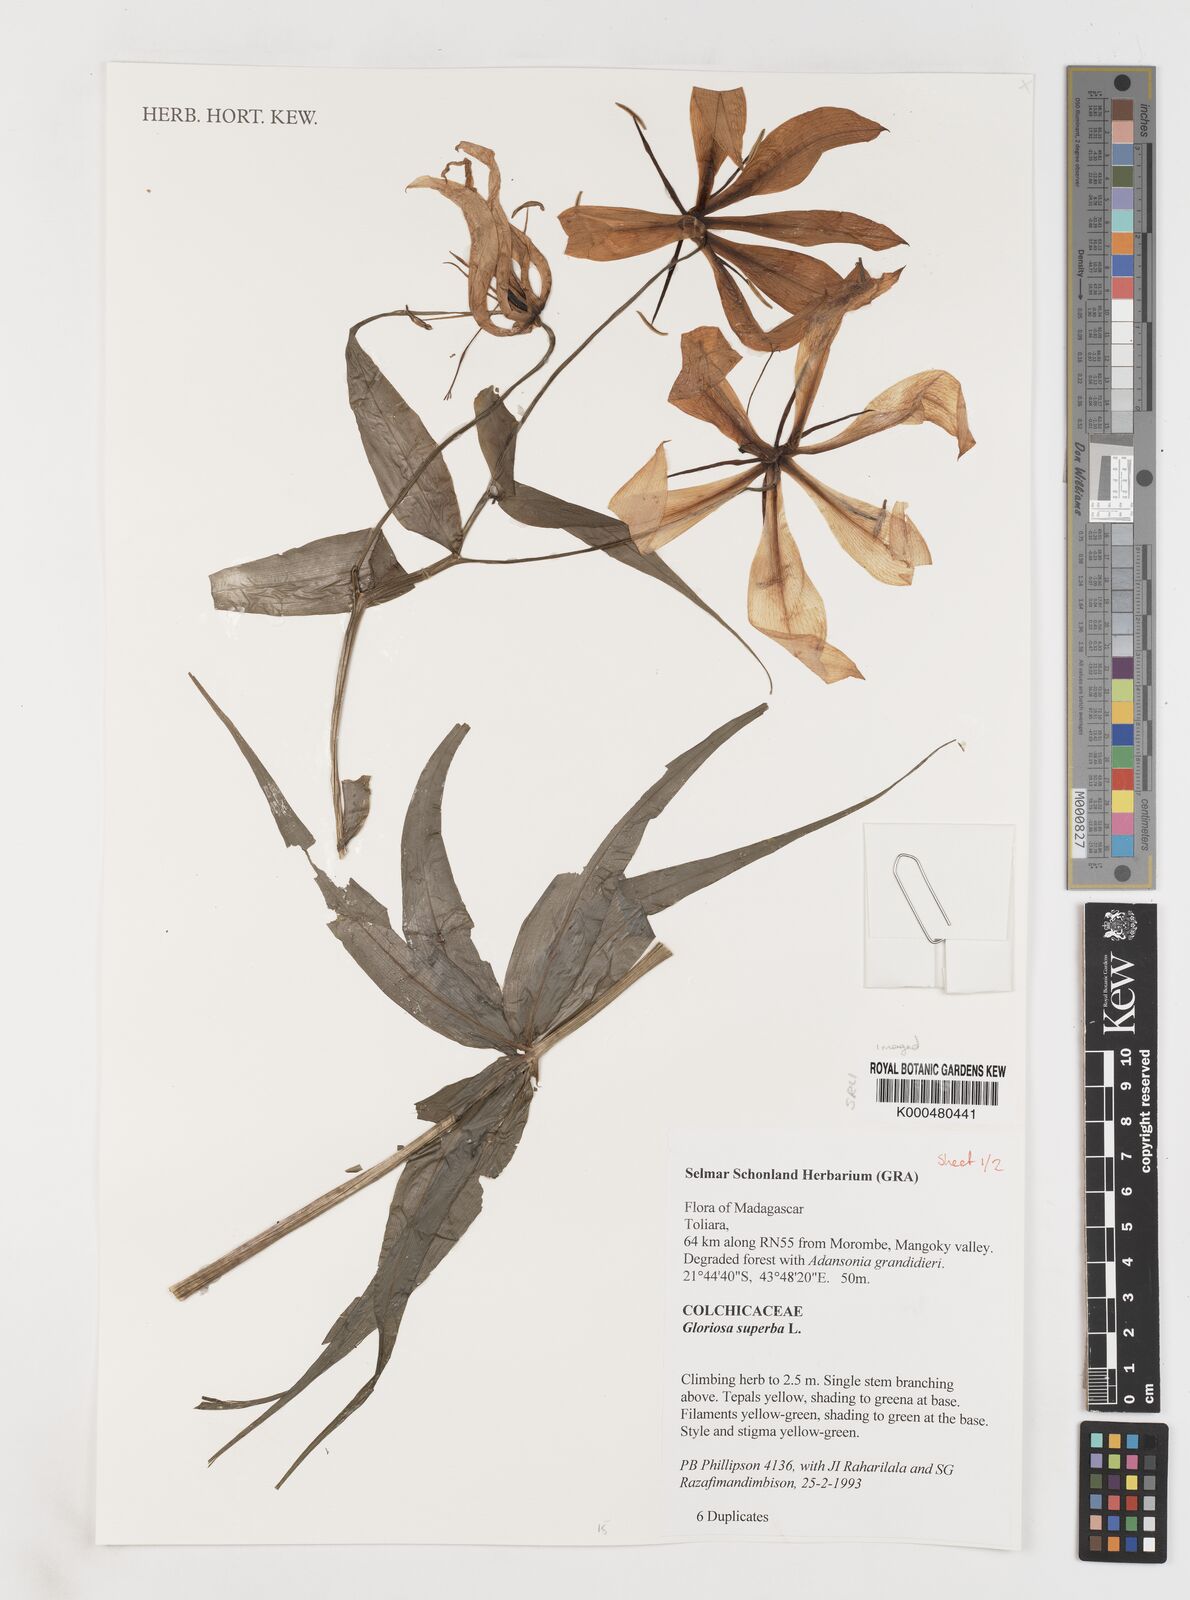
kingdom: Plantae
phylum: Tracheophyta
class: Liliopsida
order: Liliales
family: Colchicaceae
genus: Gloriosa
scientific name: Gloriosa superba
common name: Flame lily
